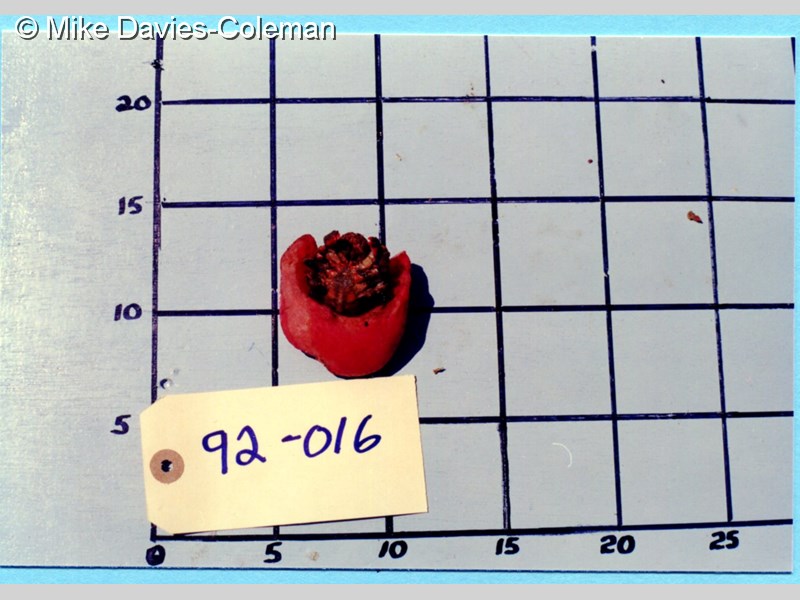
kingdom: Animalia
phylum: Arthropoda
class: Malacostraca
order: Decapoda
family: Dromiidae
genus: Pseudodromia
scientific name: Pseudodromia latens
